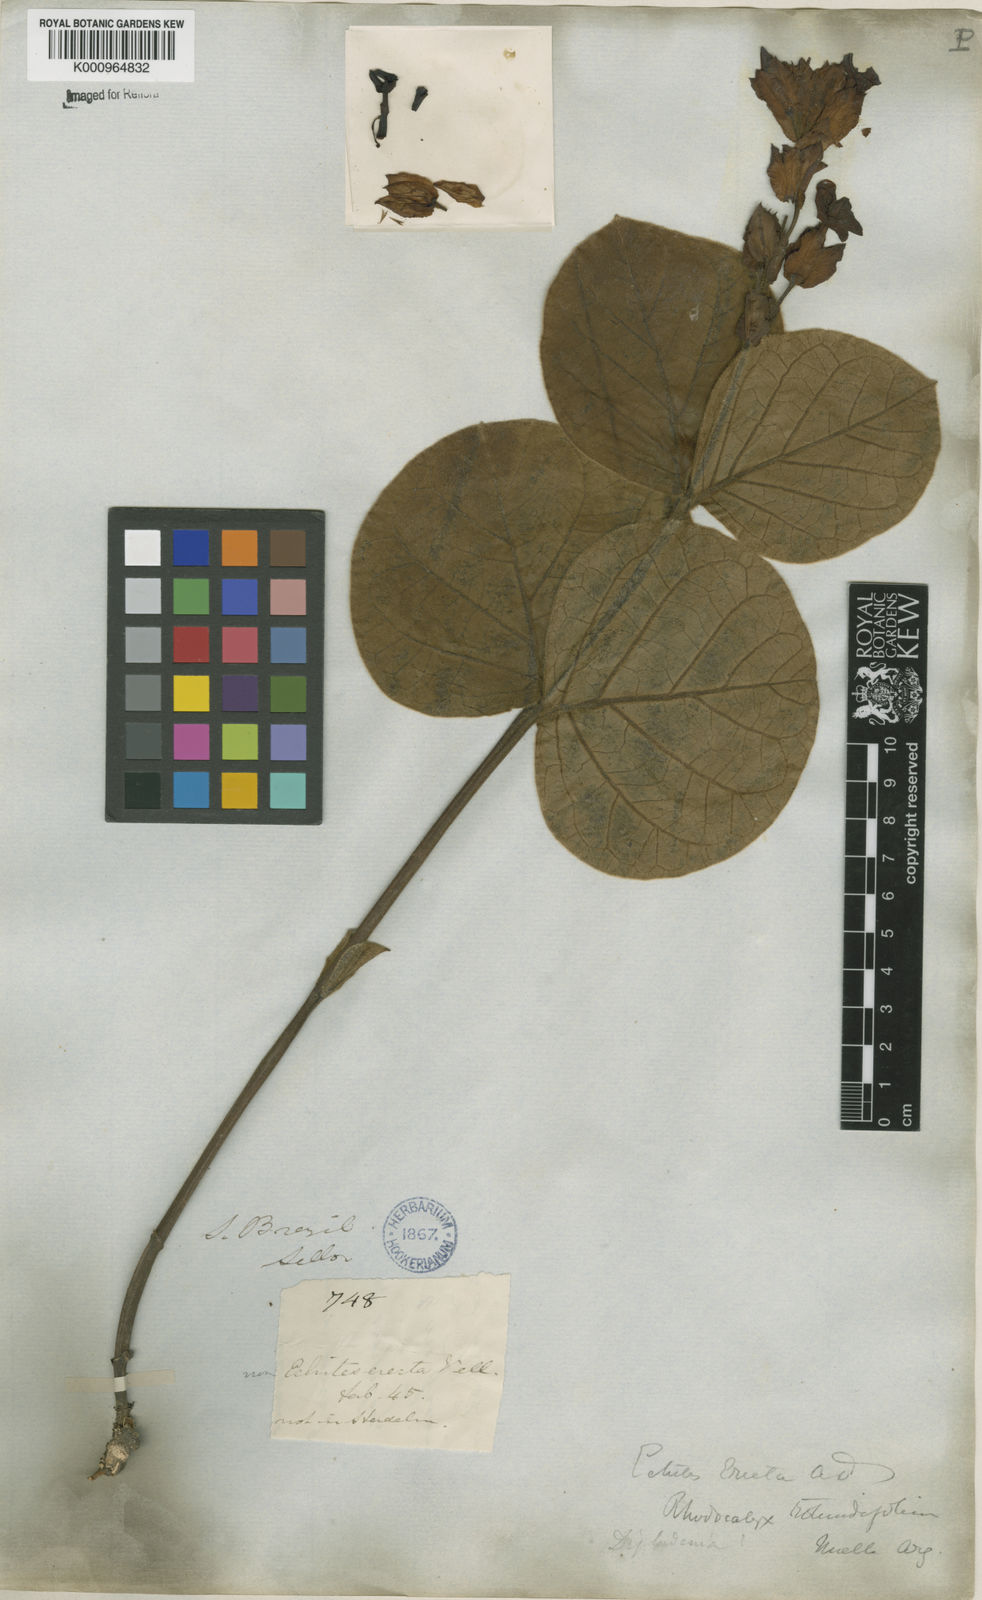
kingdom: Plantae
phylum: Tracheophyta
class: Magnoliopsida
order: Gentianales
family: Apocynaceae
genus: Rhodocalyx
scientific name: Rhodocalyx
